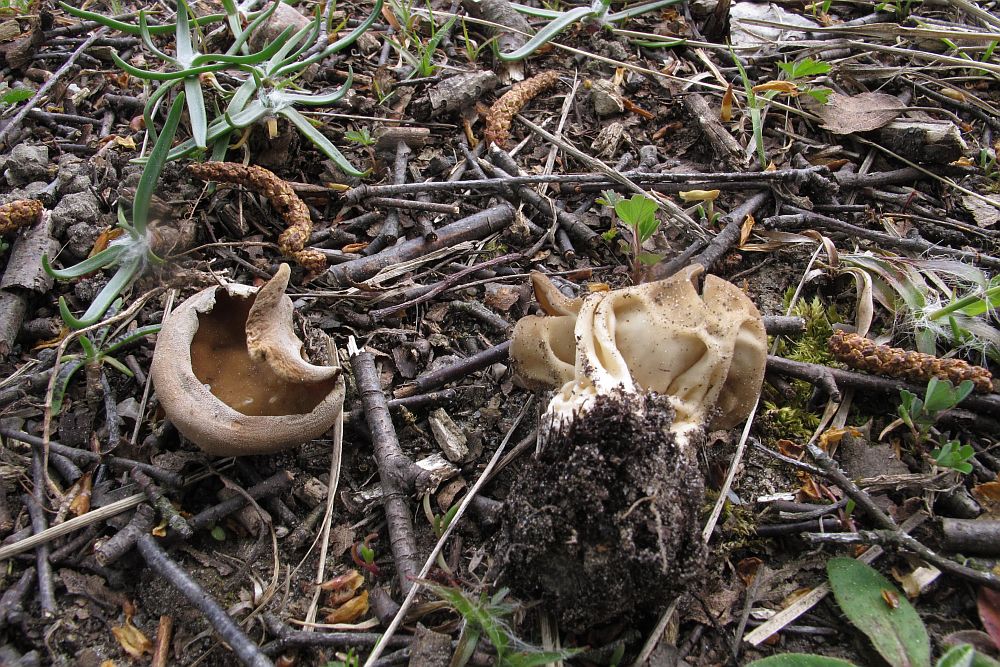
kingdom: Fungi
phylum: Ascomycota
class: Pezizomycetes
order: Pezizales
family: Helvellaceae
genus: Helvella
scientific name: Helvella acetabulum
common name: pokal-foldhat
